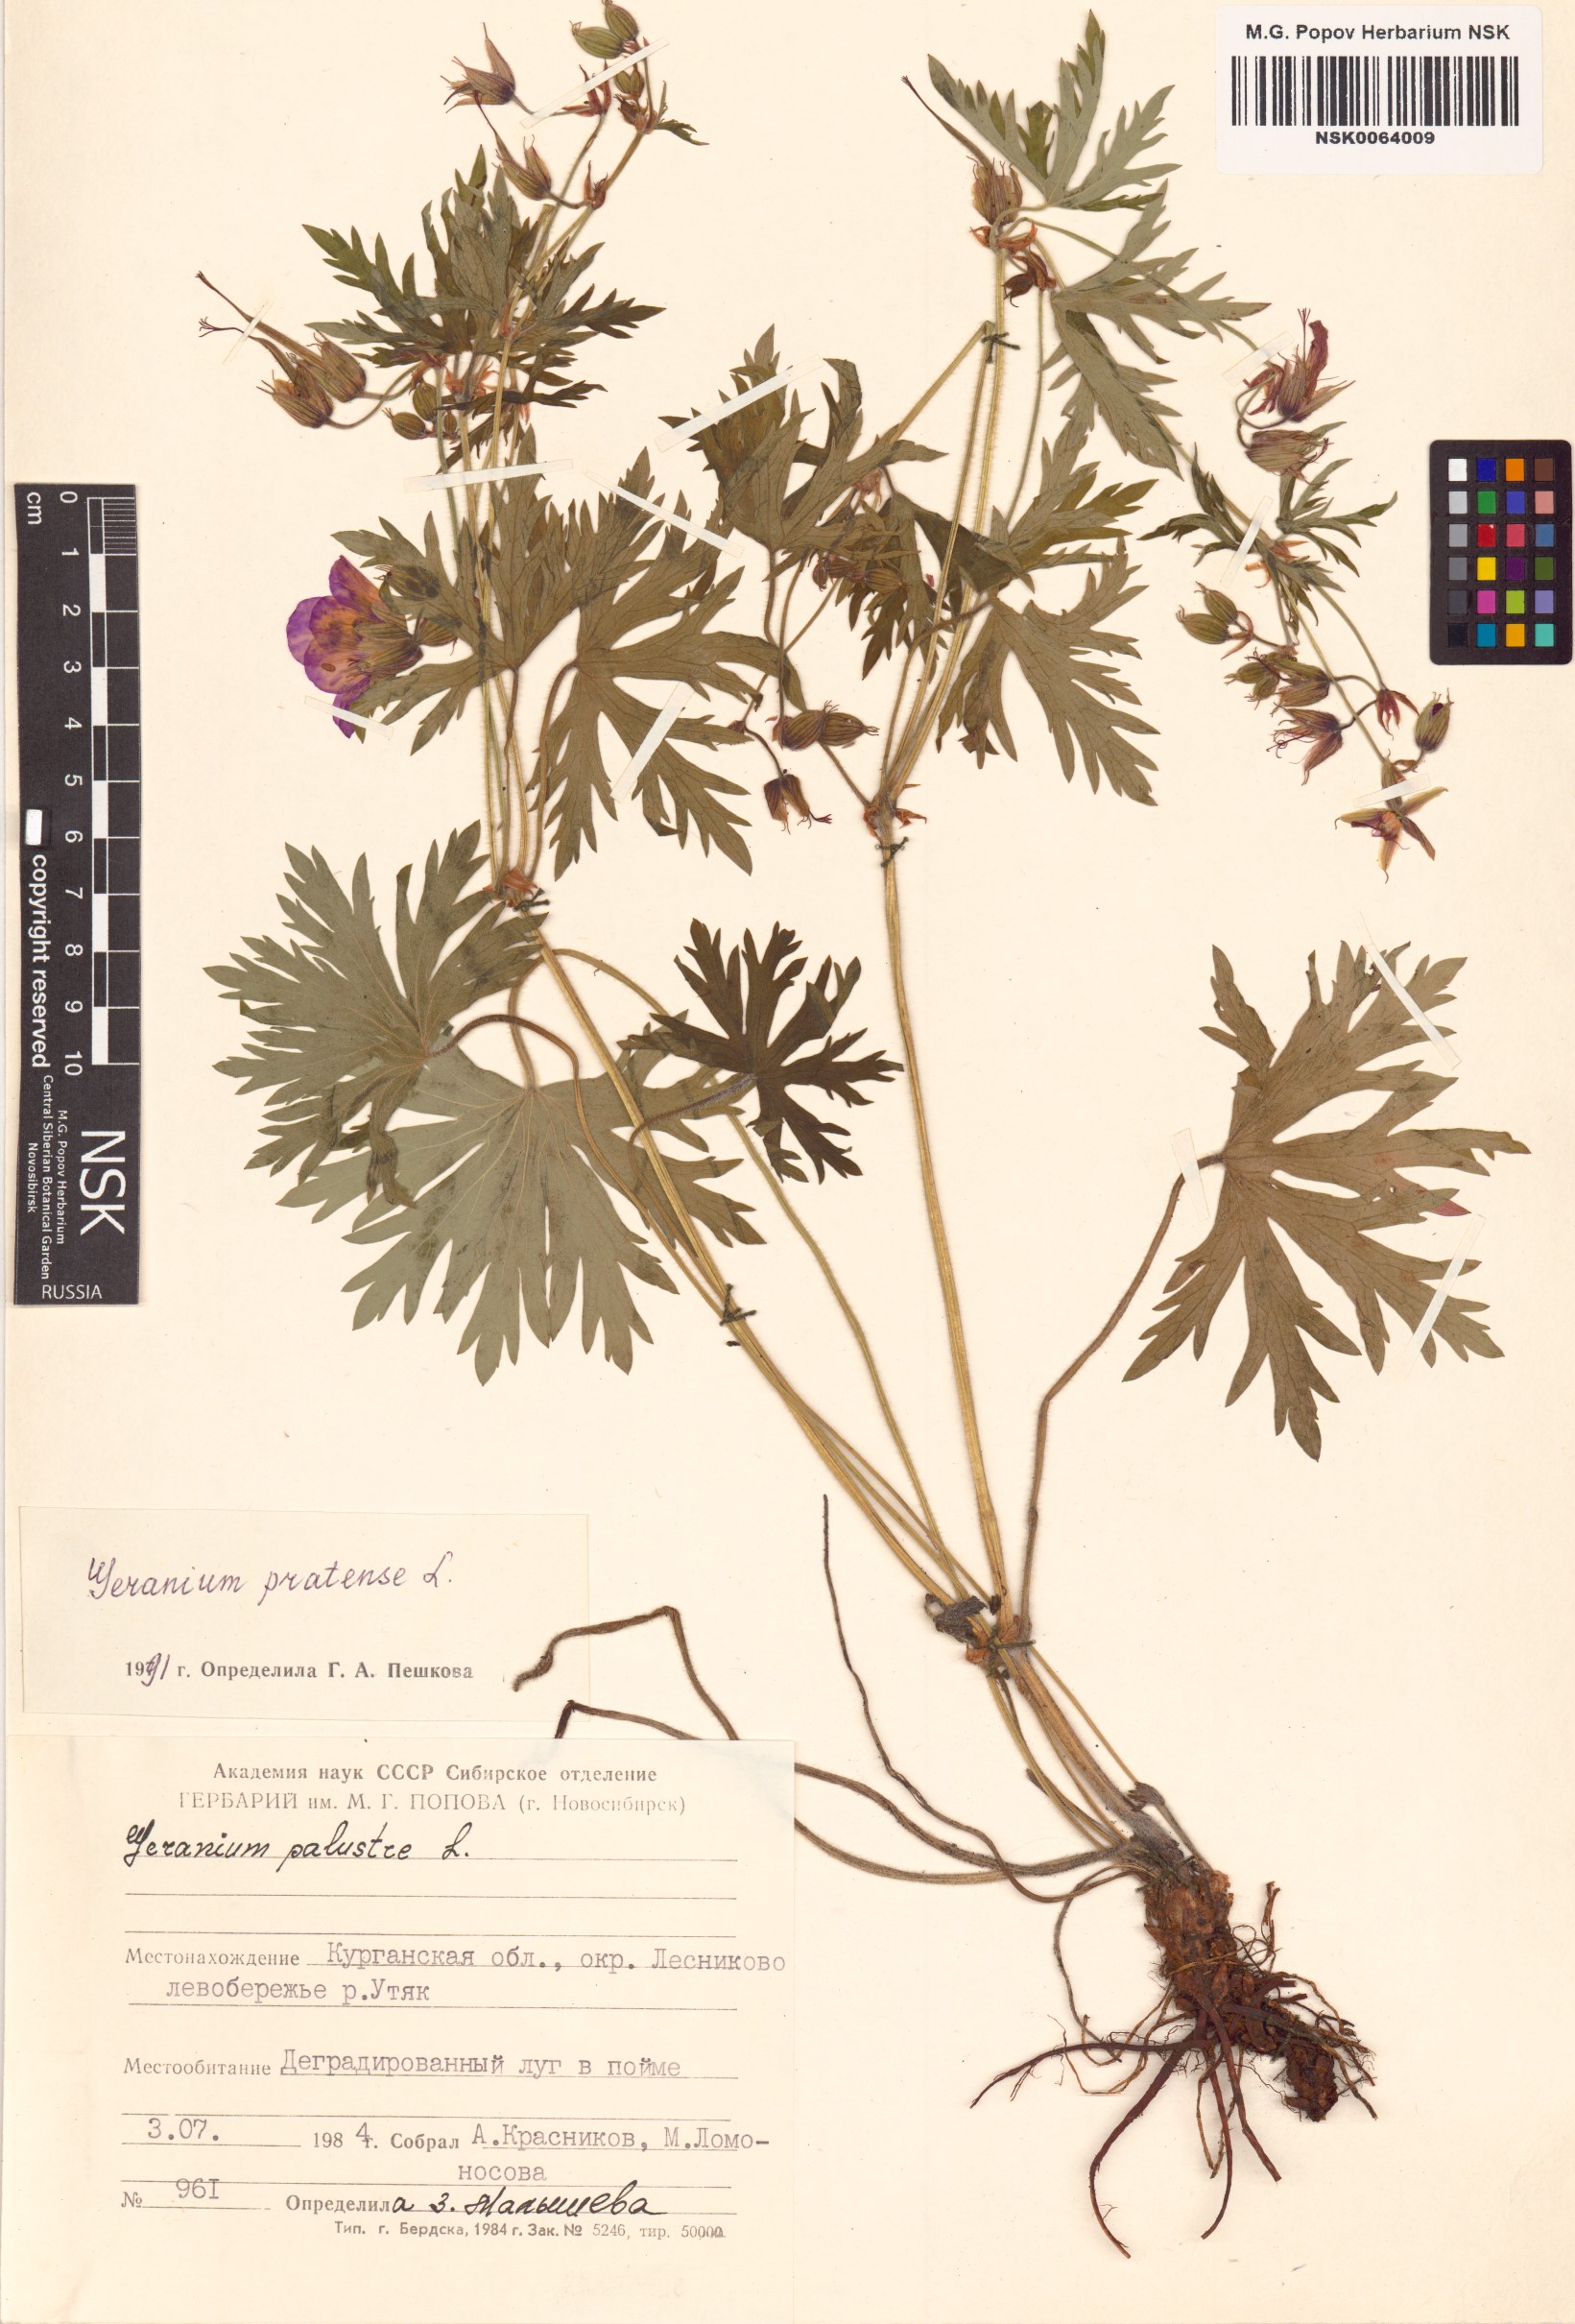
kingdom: Plantae
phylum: Tracheophyta
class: Magnoliopsida
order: Geraniales
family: Geraniaceae
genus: Geranium
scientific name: Geranium pratense
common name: Meadow crane's-bill
